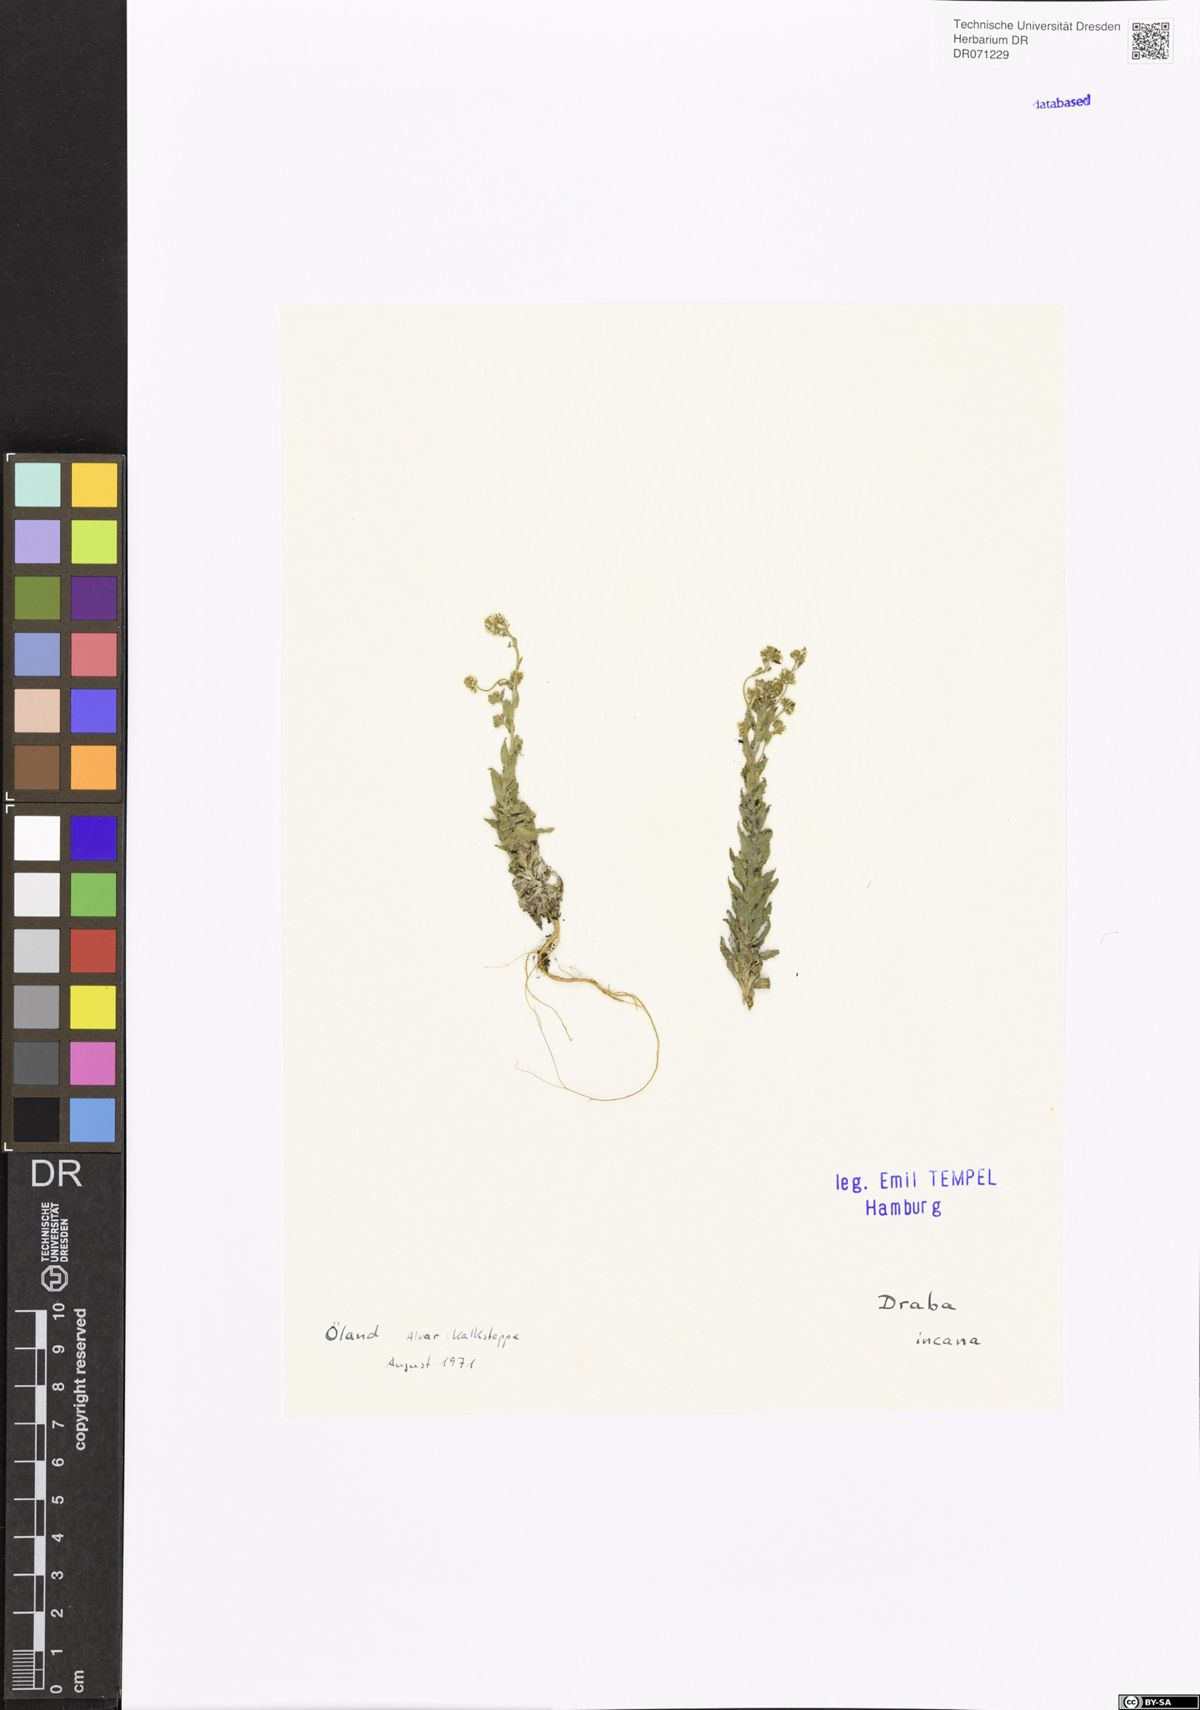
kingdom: Plantae
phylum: Tracheophyta
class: Magnoliopsida
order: Brassicales
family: Brassicaceae
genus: Draba
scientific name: Draba incana
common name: Hoary whitlow-grass
